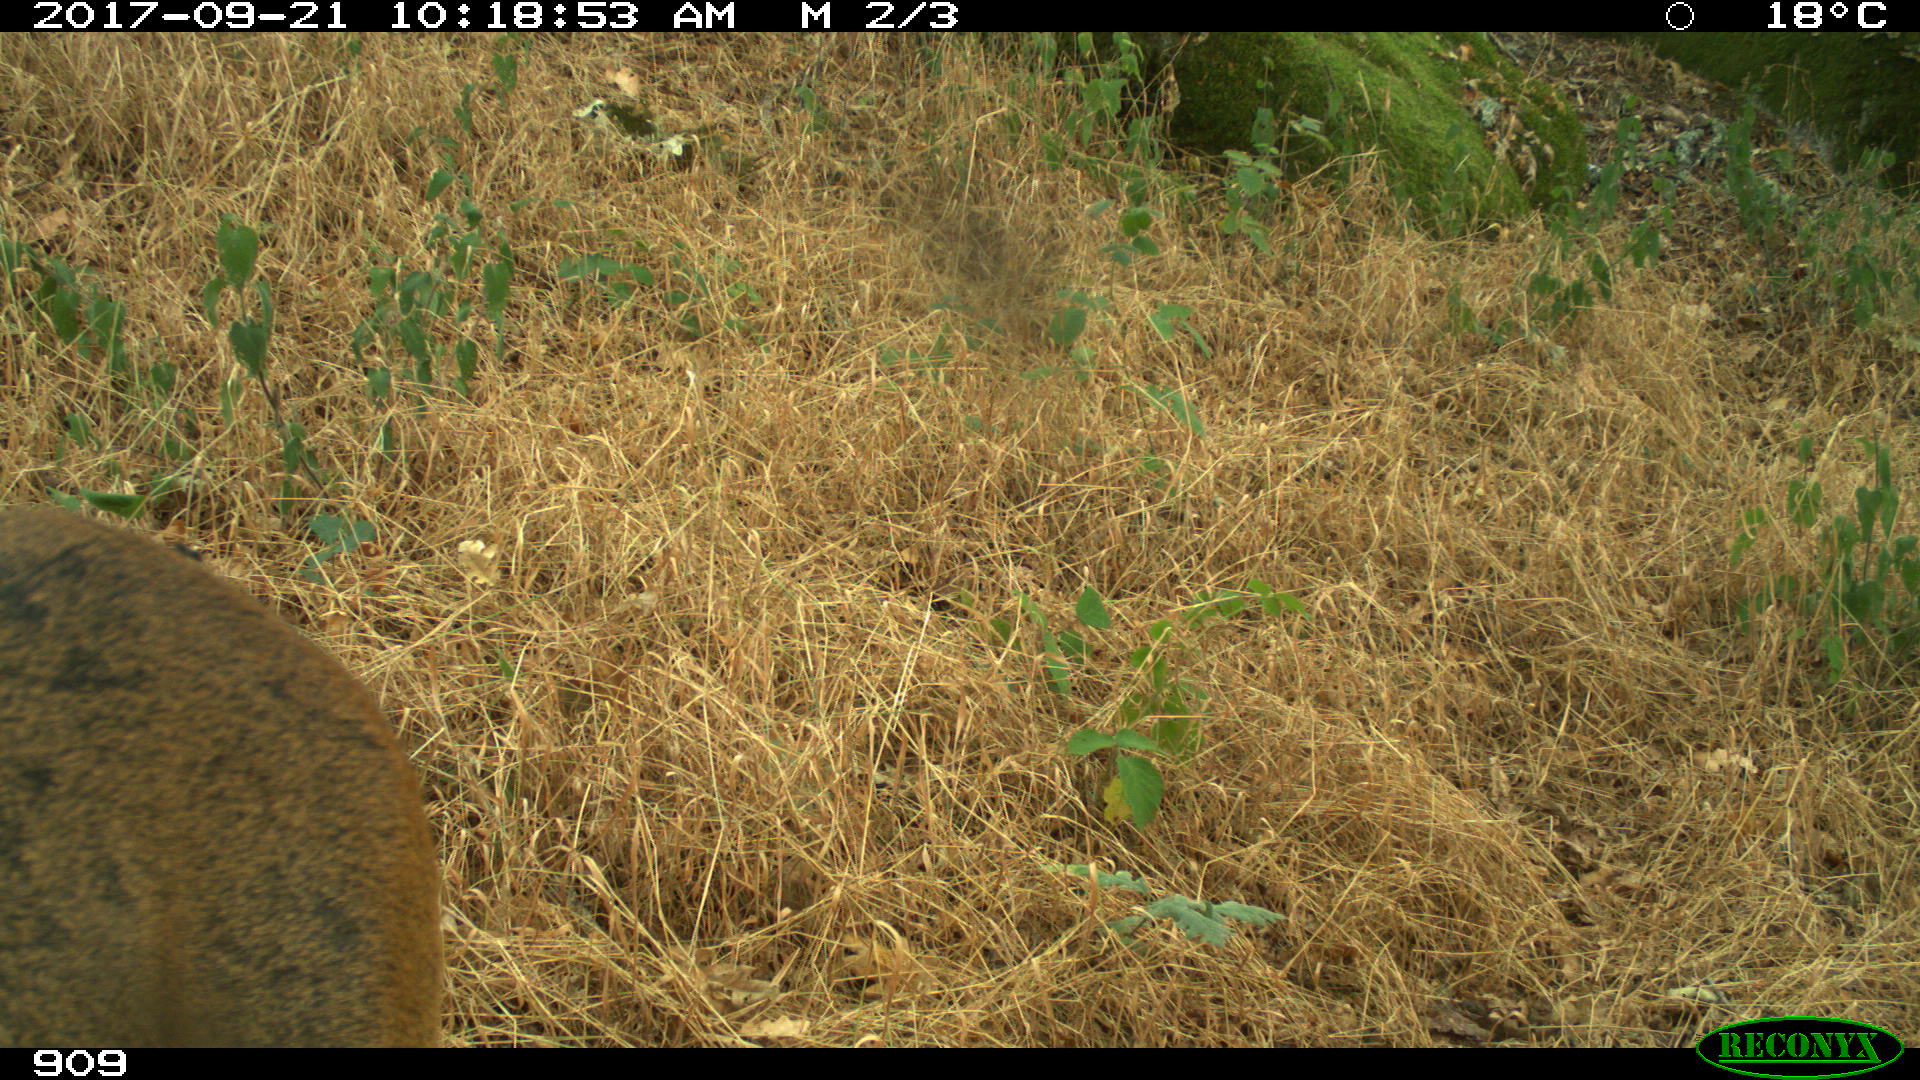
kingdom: Animalia
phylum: Chordata
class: Mammalia
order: Artiodactyla
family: Cervidae
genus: Capreolus
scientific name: Capreolus capreolus
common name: Western roe deer
